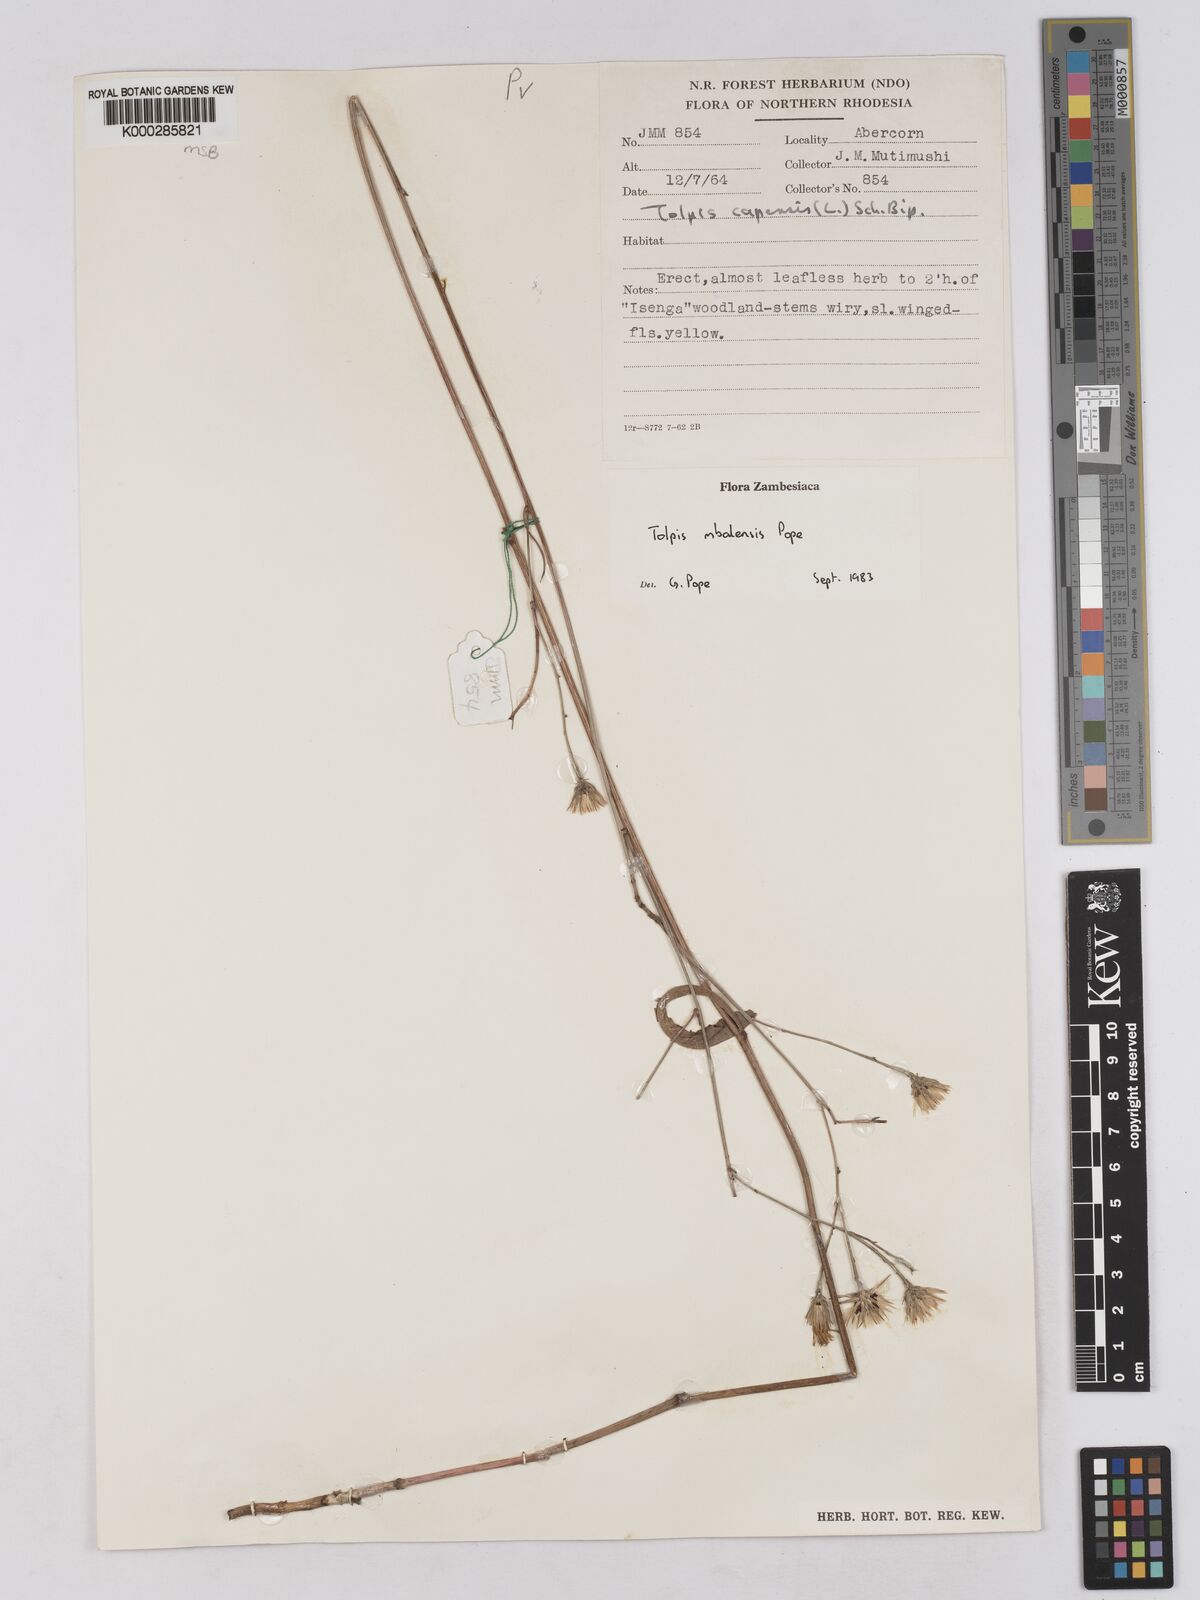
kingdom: Plantae
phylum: Tracheophyta
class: Magnoliopsida
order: Asterales
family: Asteraceae
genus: Tolpis
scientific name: Tolpis mbalensis
